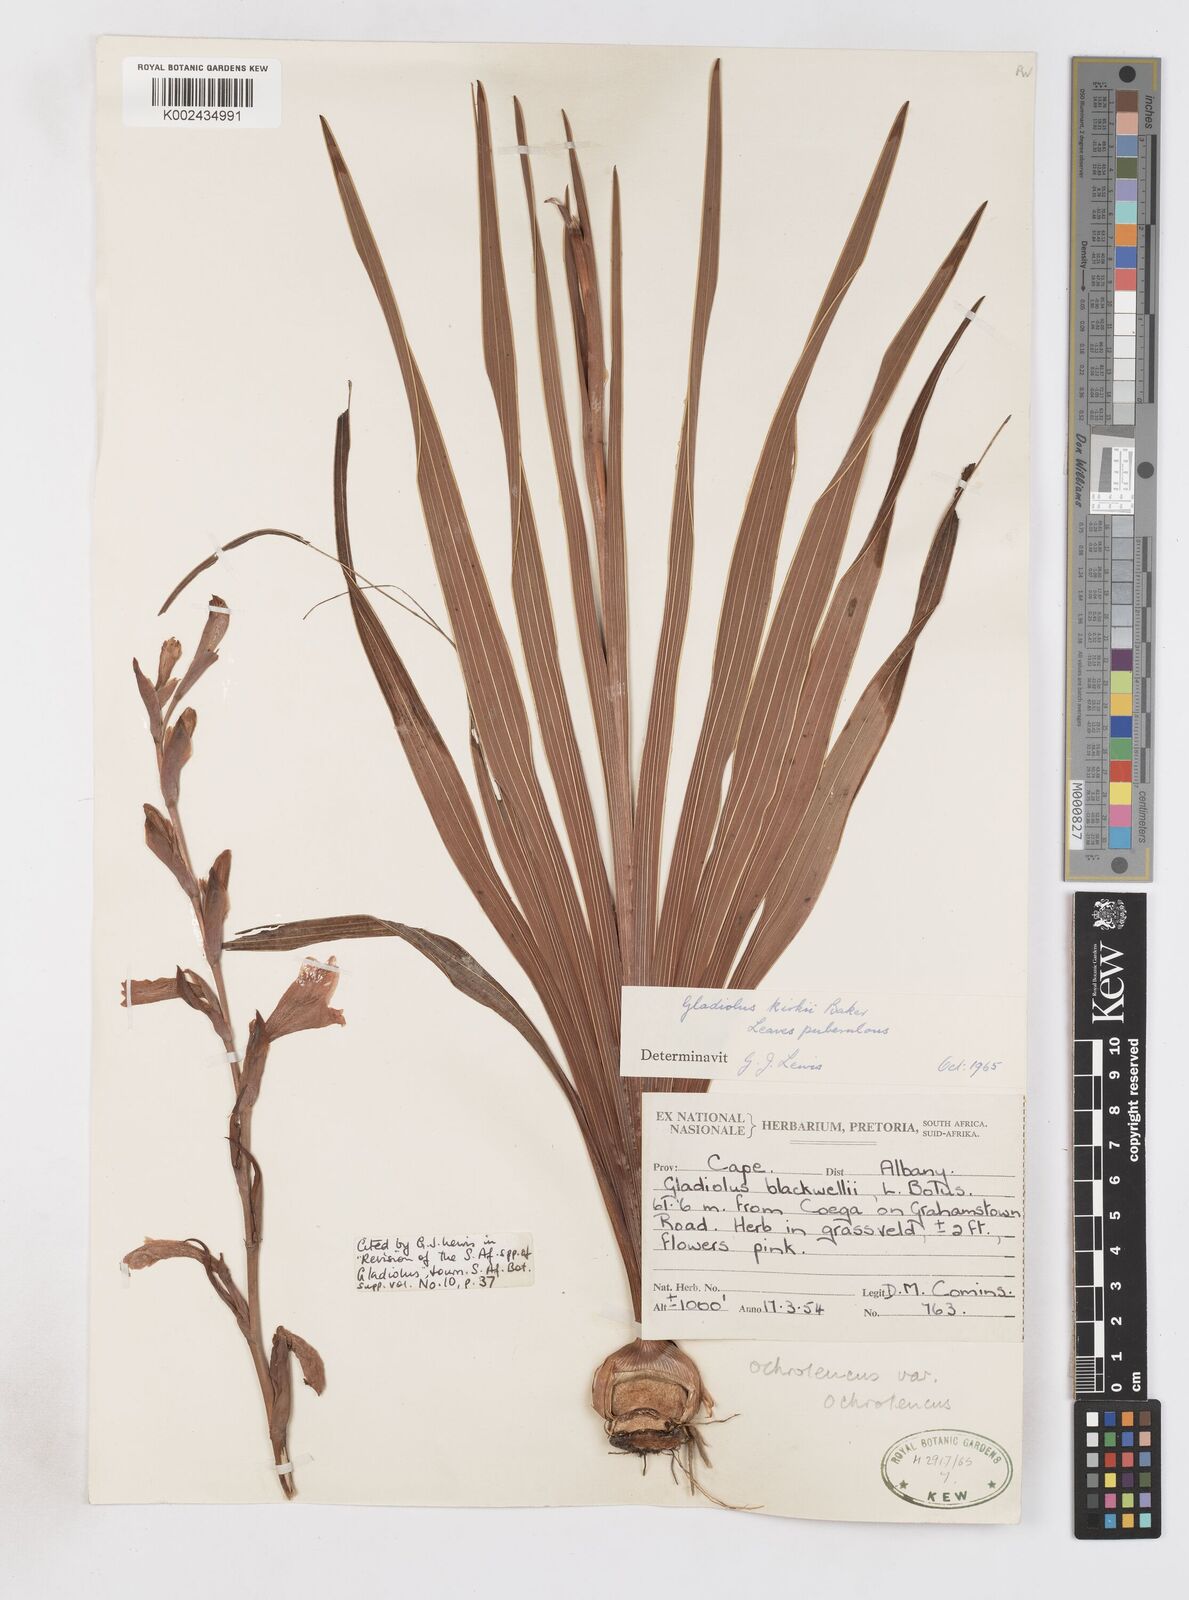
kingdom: Plantae
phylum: Tracheophyta
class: Liliopsida
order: Asparagales
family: Iridaceae
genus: Gladiolus
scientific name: Gladiolus ochroleucus
